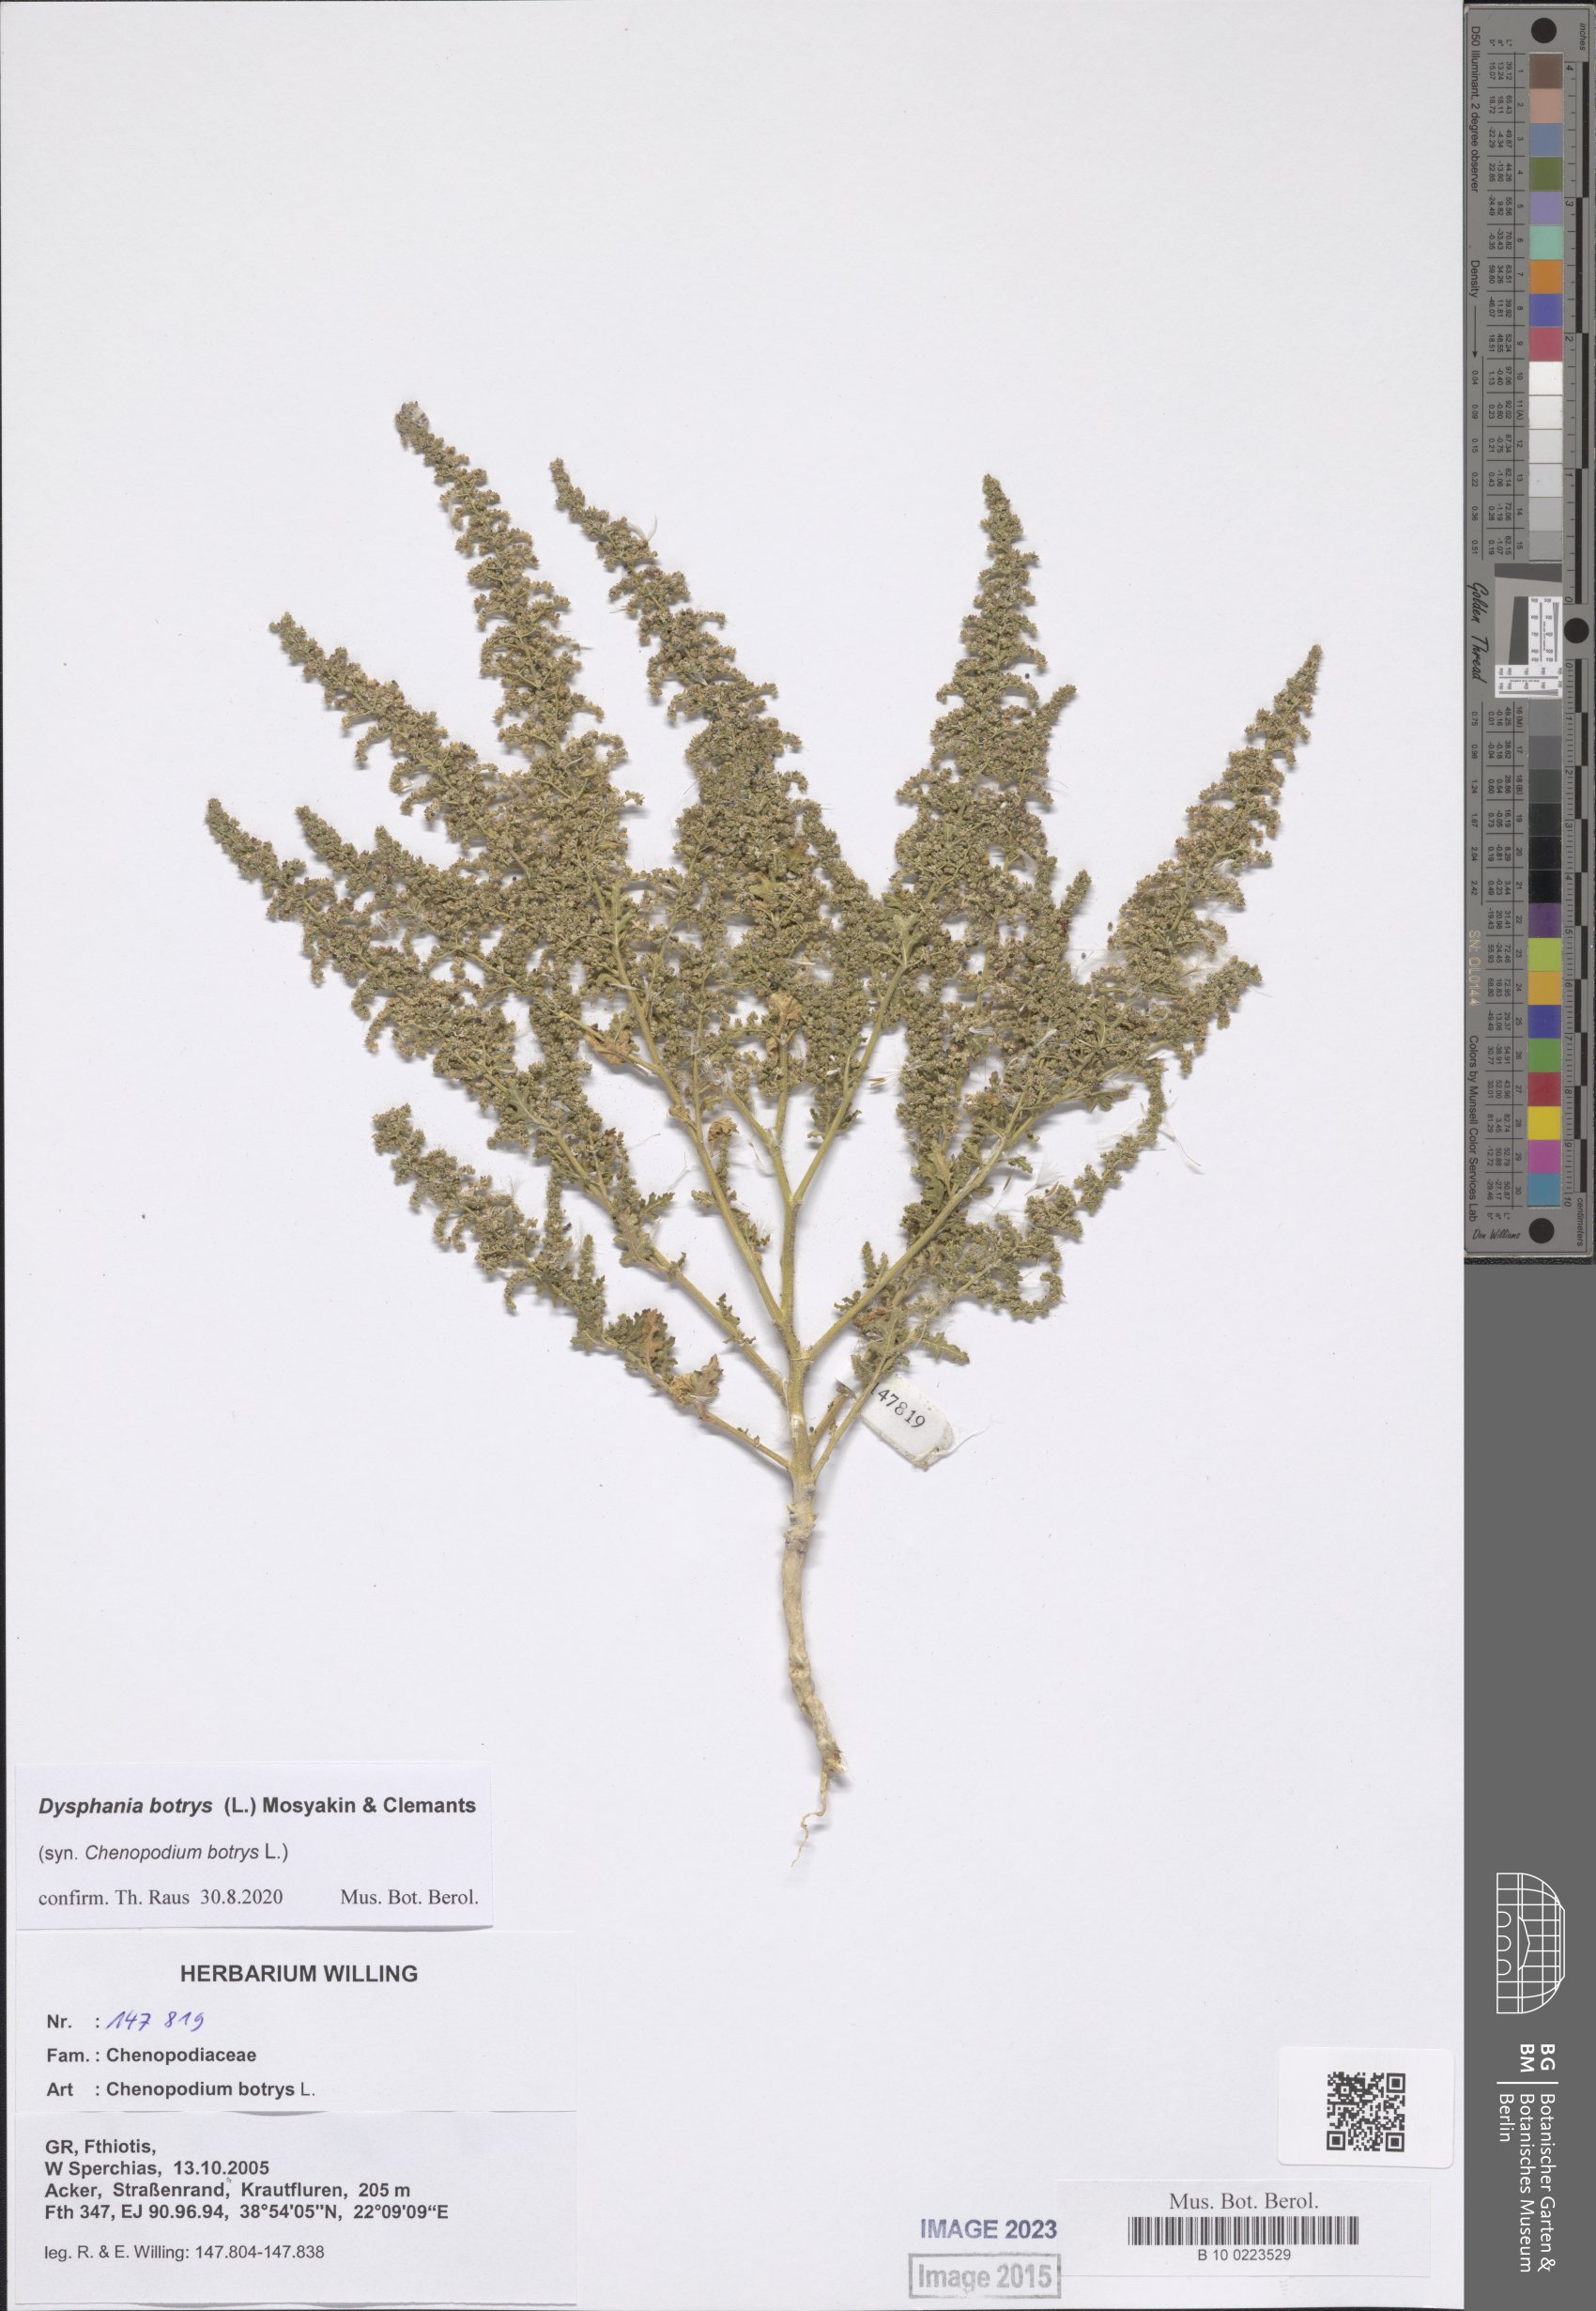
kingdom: Plantae
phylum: Tracheophyta
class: Magnoliopsida
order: Caryophyllales
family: Amaranthaceae
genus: Dysphania
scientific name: Dysphania botrys
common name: Feather-geranium
